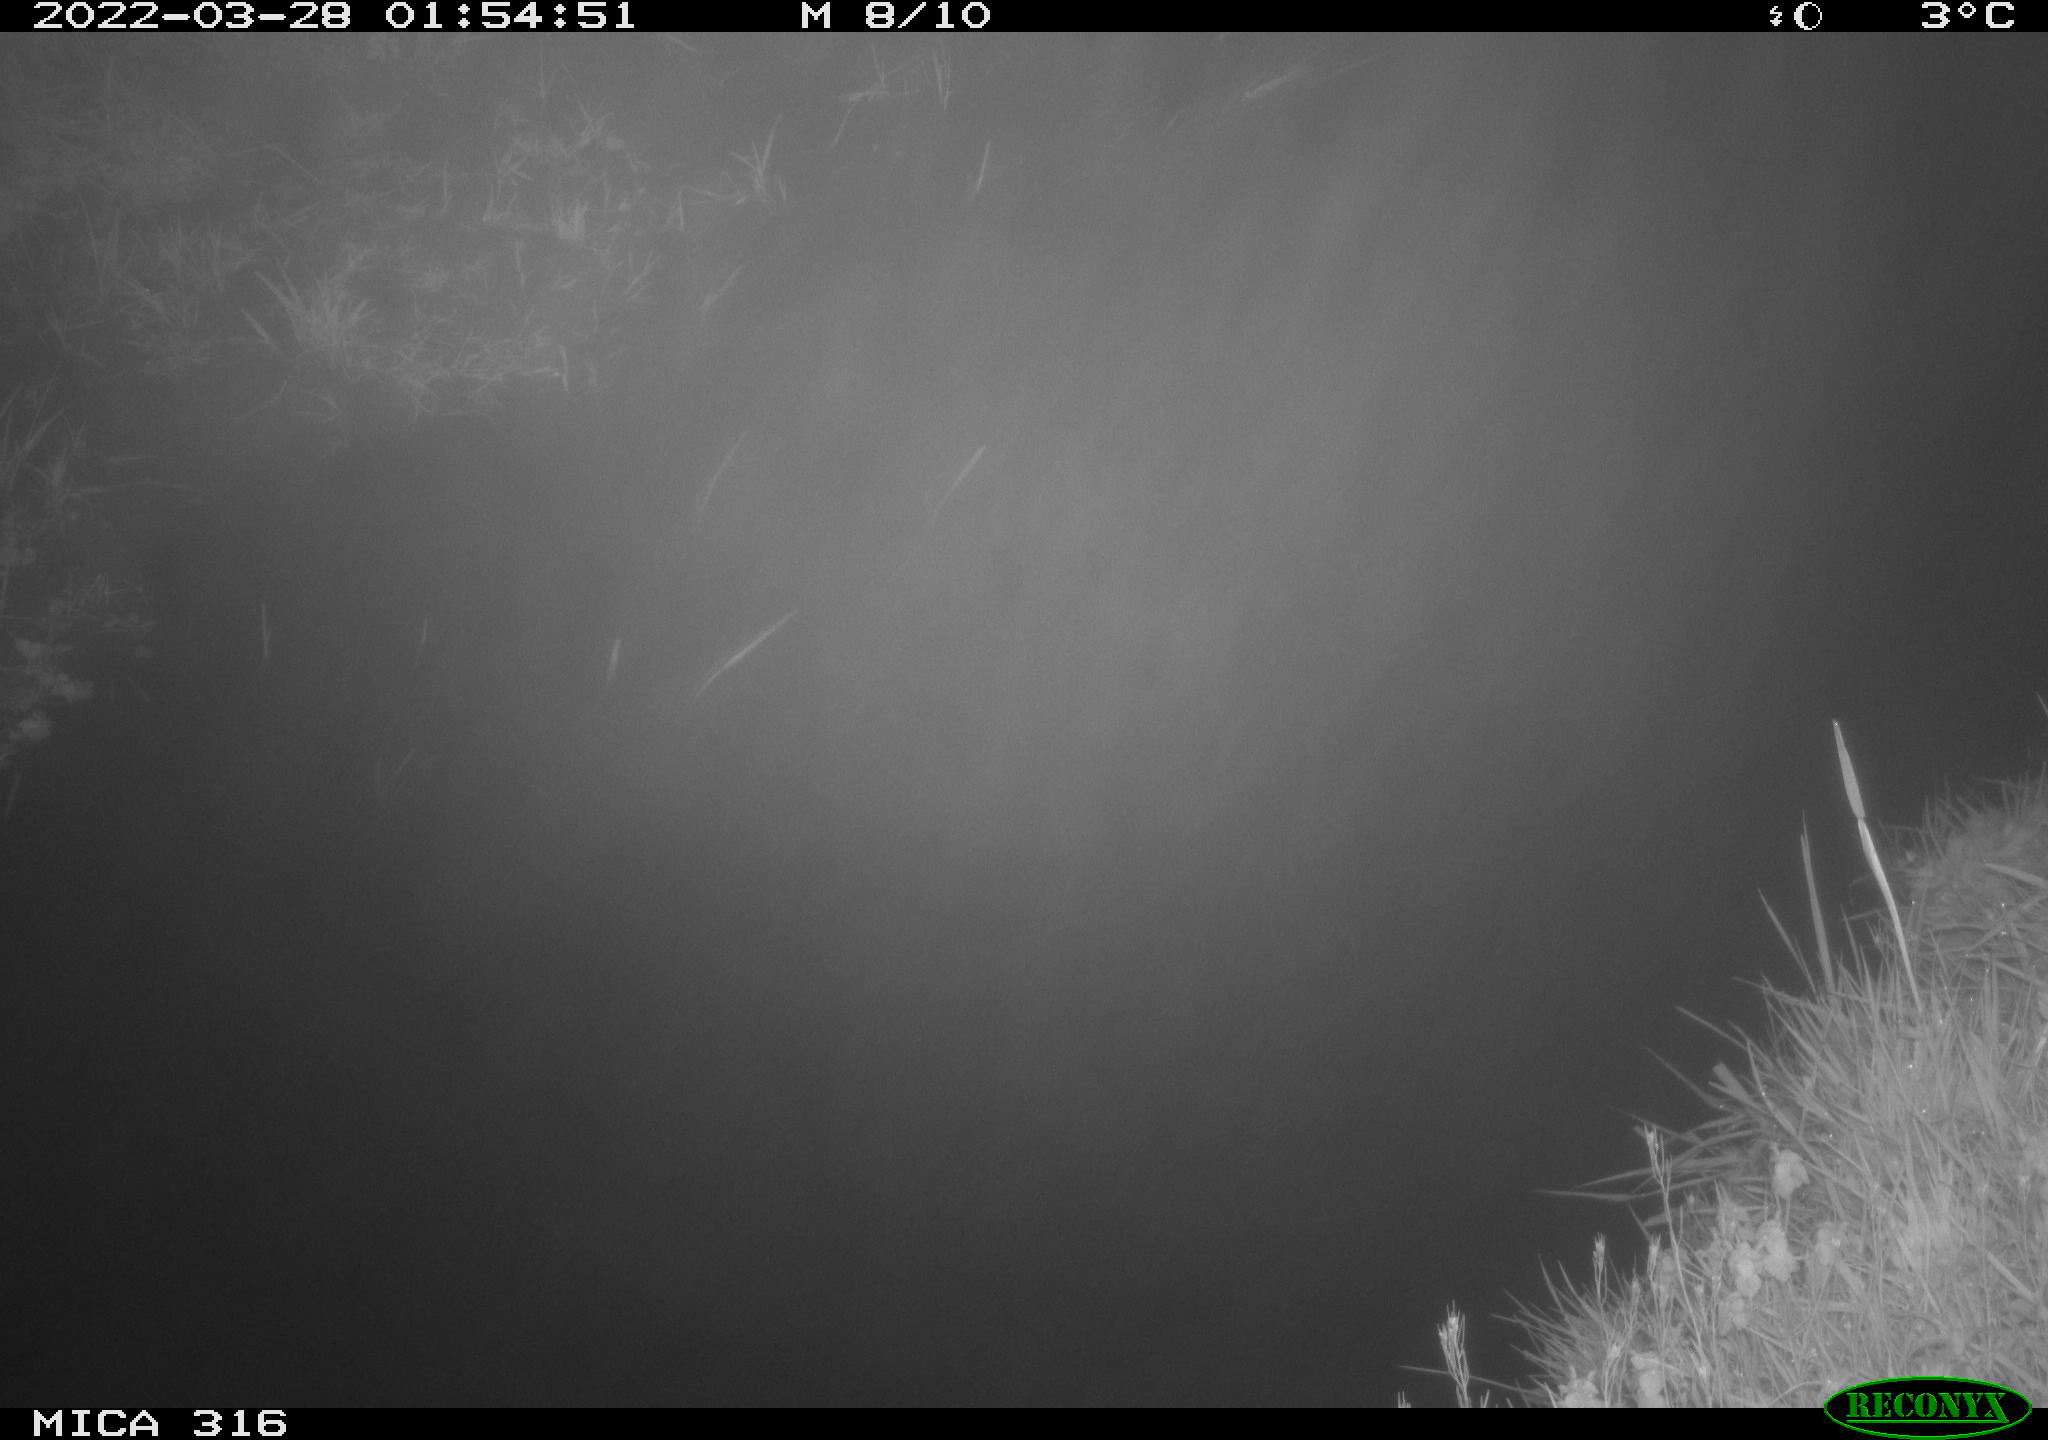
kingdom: Animalia
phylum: Chordata
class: Aves
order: Anseriformes
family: Anatidae
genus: Anas
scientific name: Anas platyrhynchos
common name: Mallard
